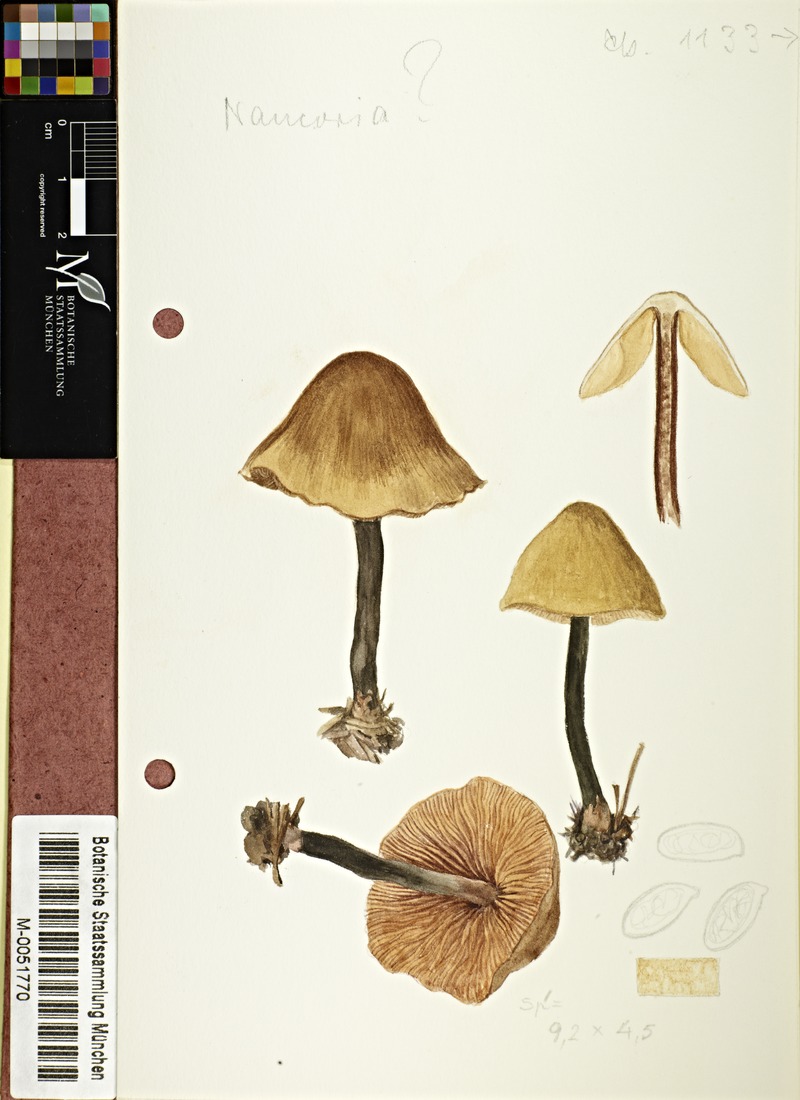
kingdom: Fungi
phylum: Basidiomycota
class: Agaricomycetes
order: Agaricales
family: Tubariaceae
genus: Tubaria
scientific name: Tubaria
